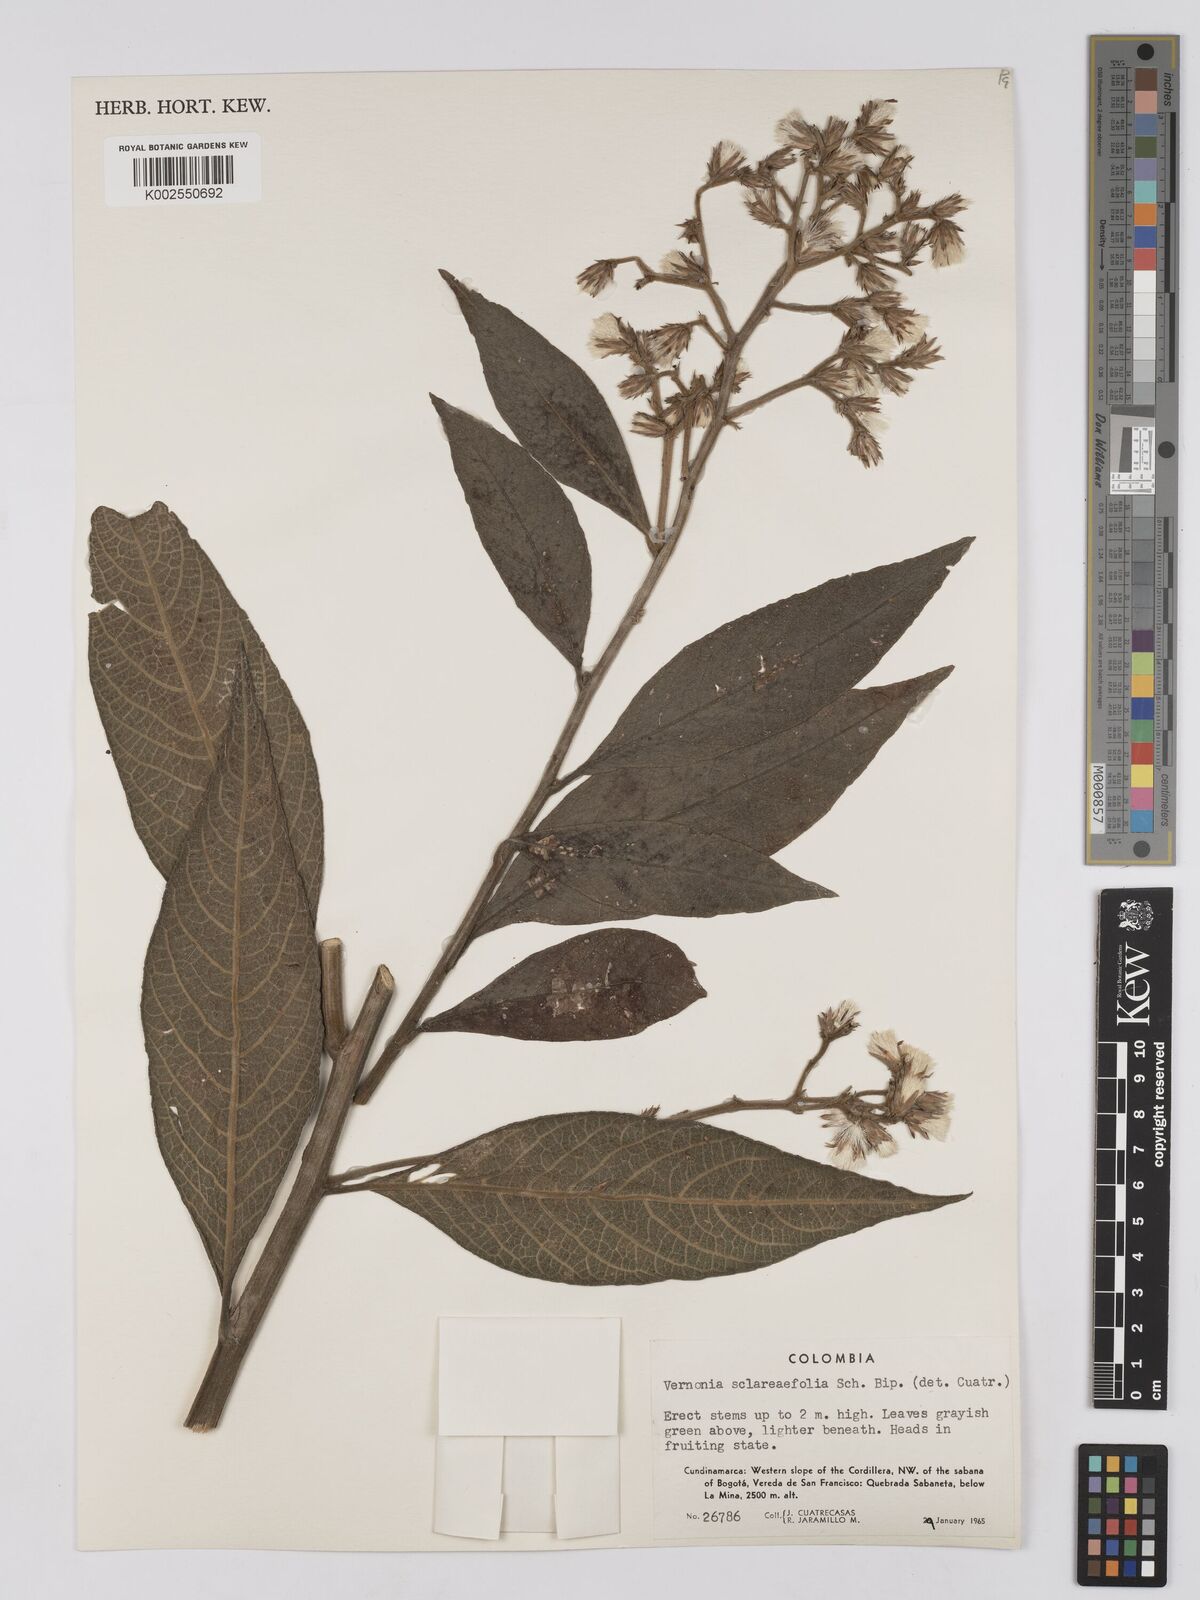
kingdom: Plantae
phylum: Tracheophyta
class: Magnoliopsida
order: Asterales
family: Asteraceae
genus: Lepidaploa
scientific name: Lepidaploa sclareifolia
